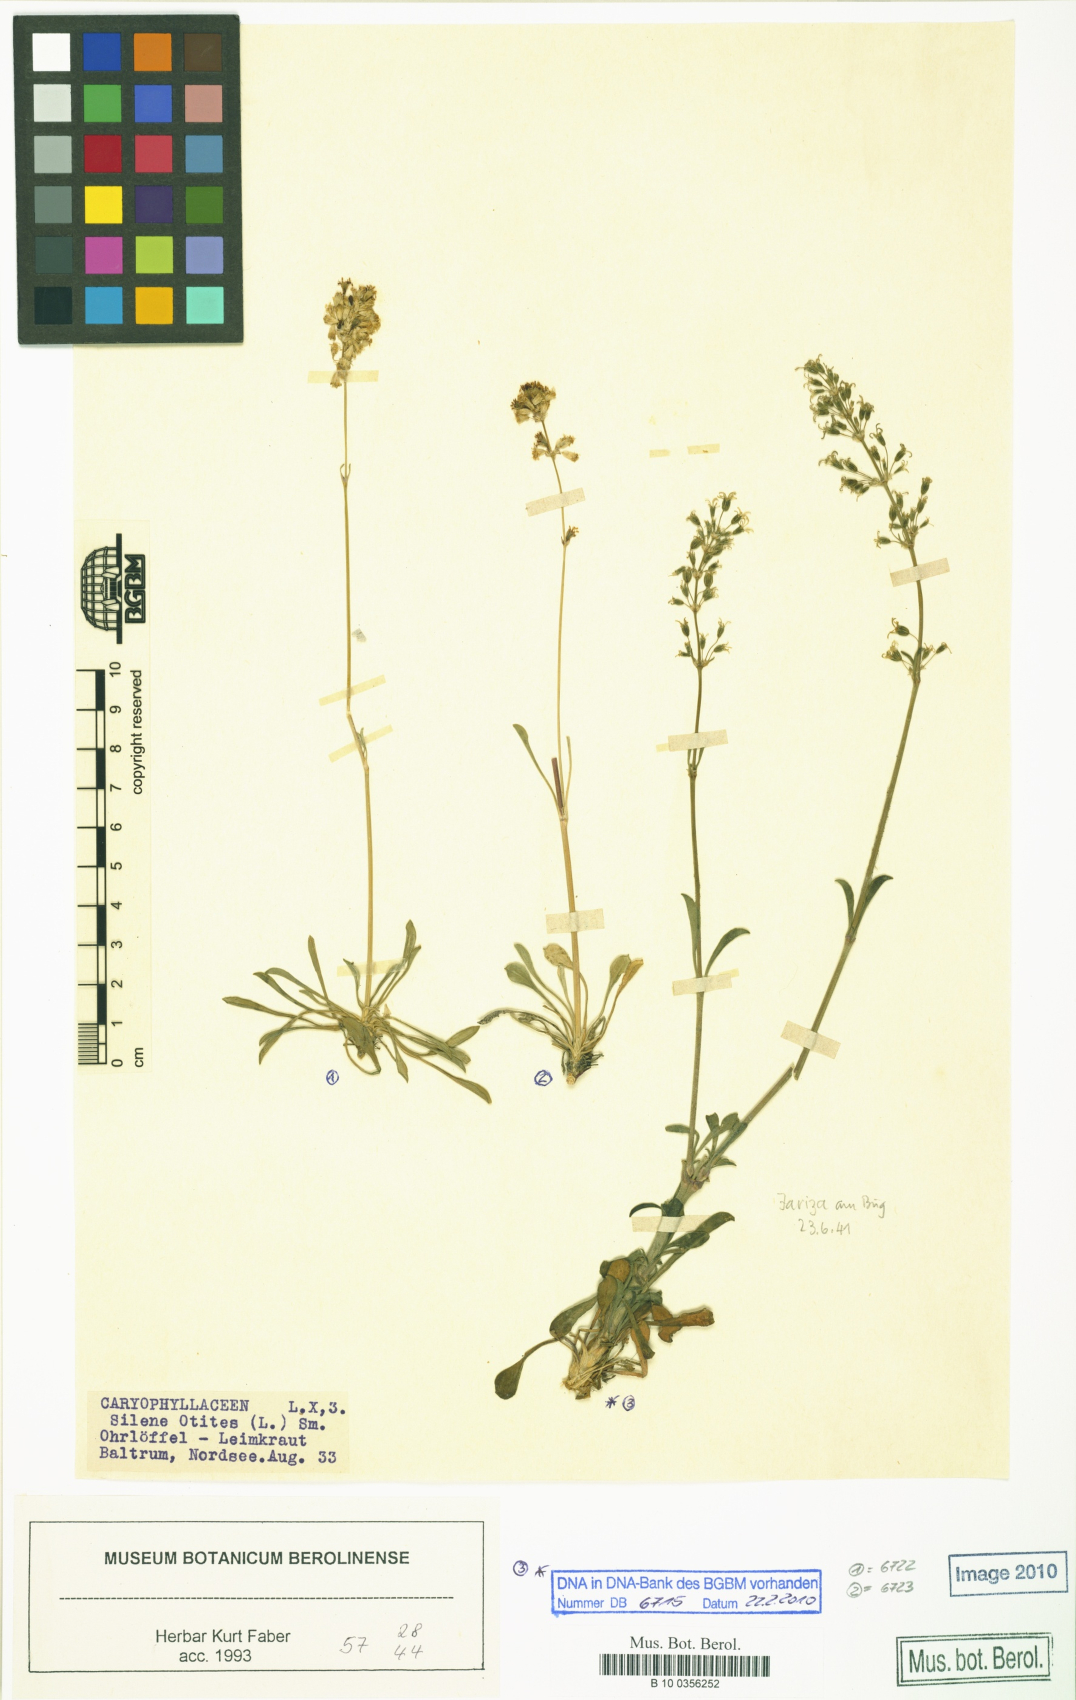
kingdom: Plantae
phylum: Tracheophyta
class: Magnoliopsida
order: Caryophyllales
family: Caryophyllaceae
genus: Silene
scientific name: Silene otites
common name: Spanish catchfly
